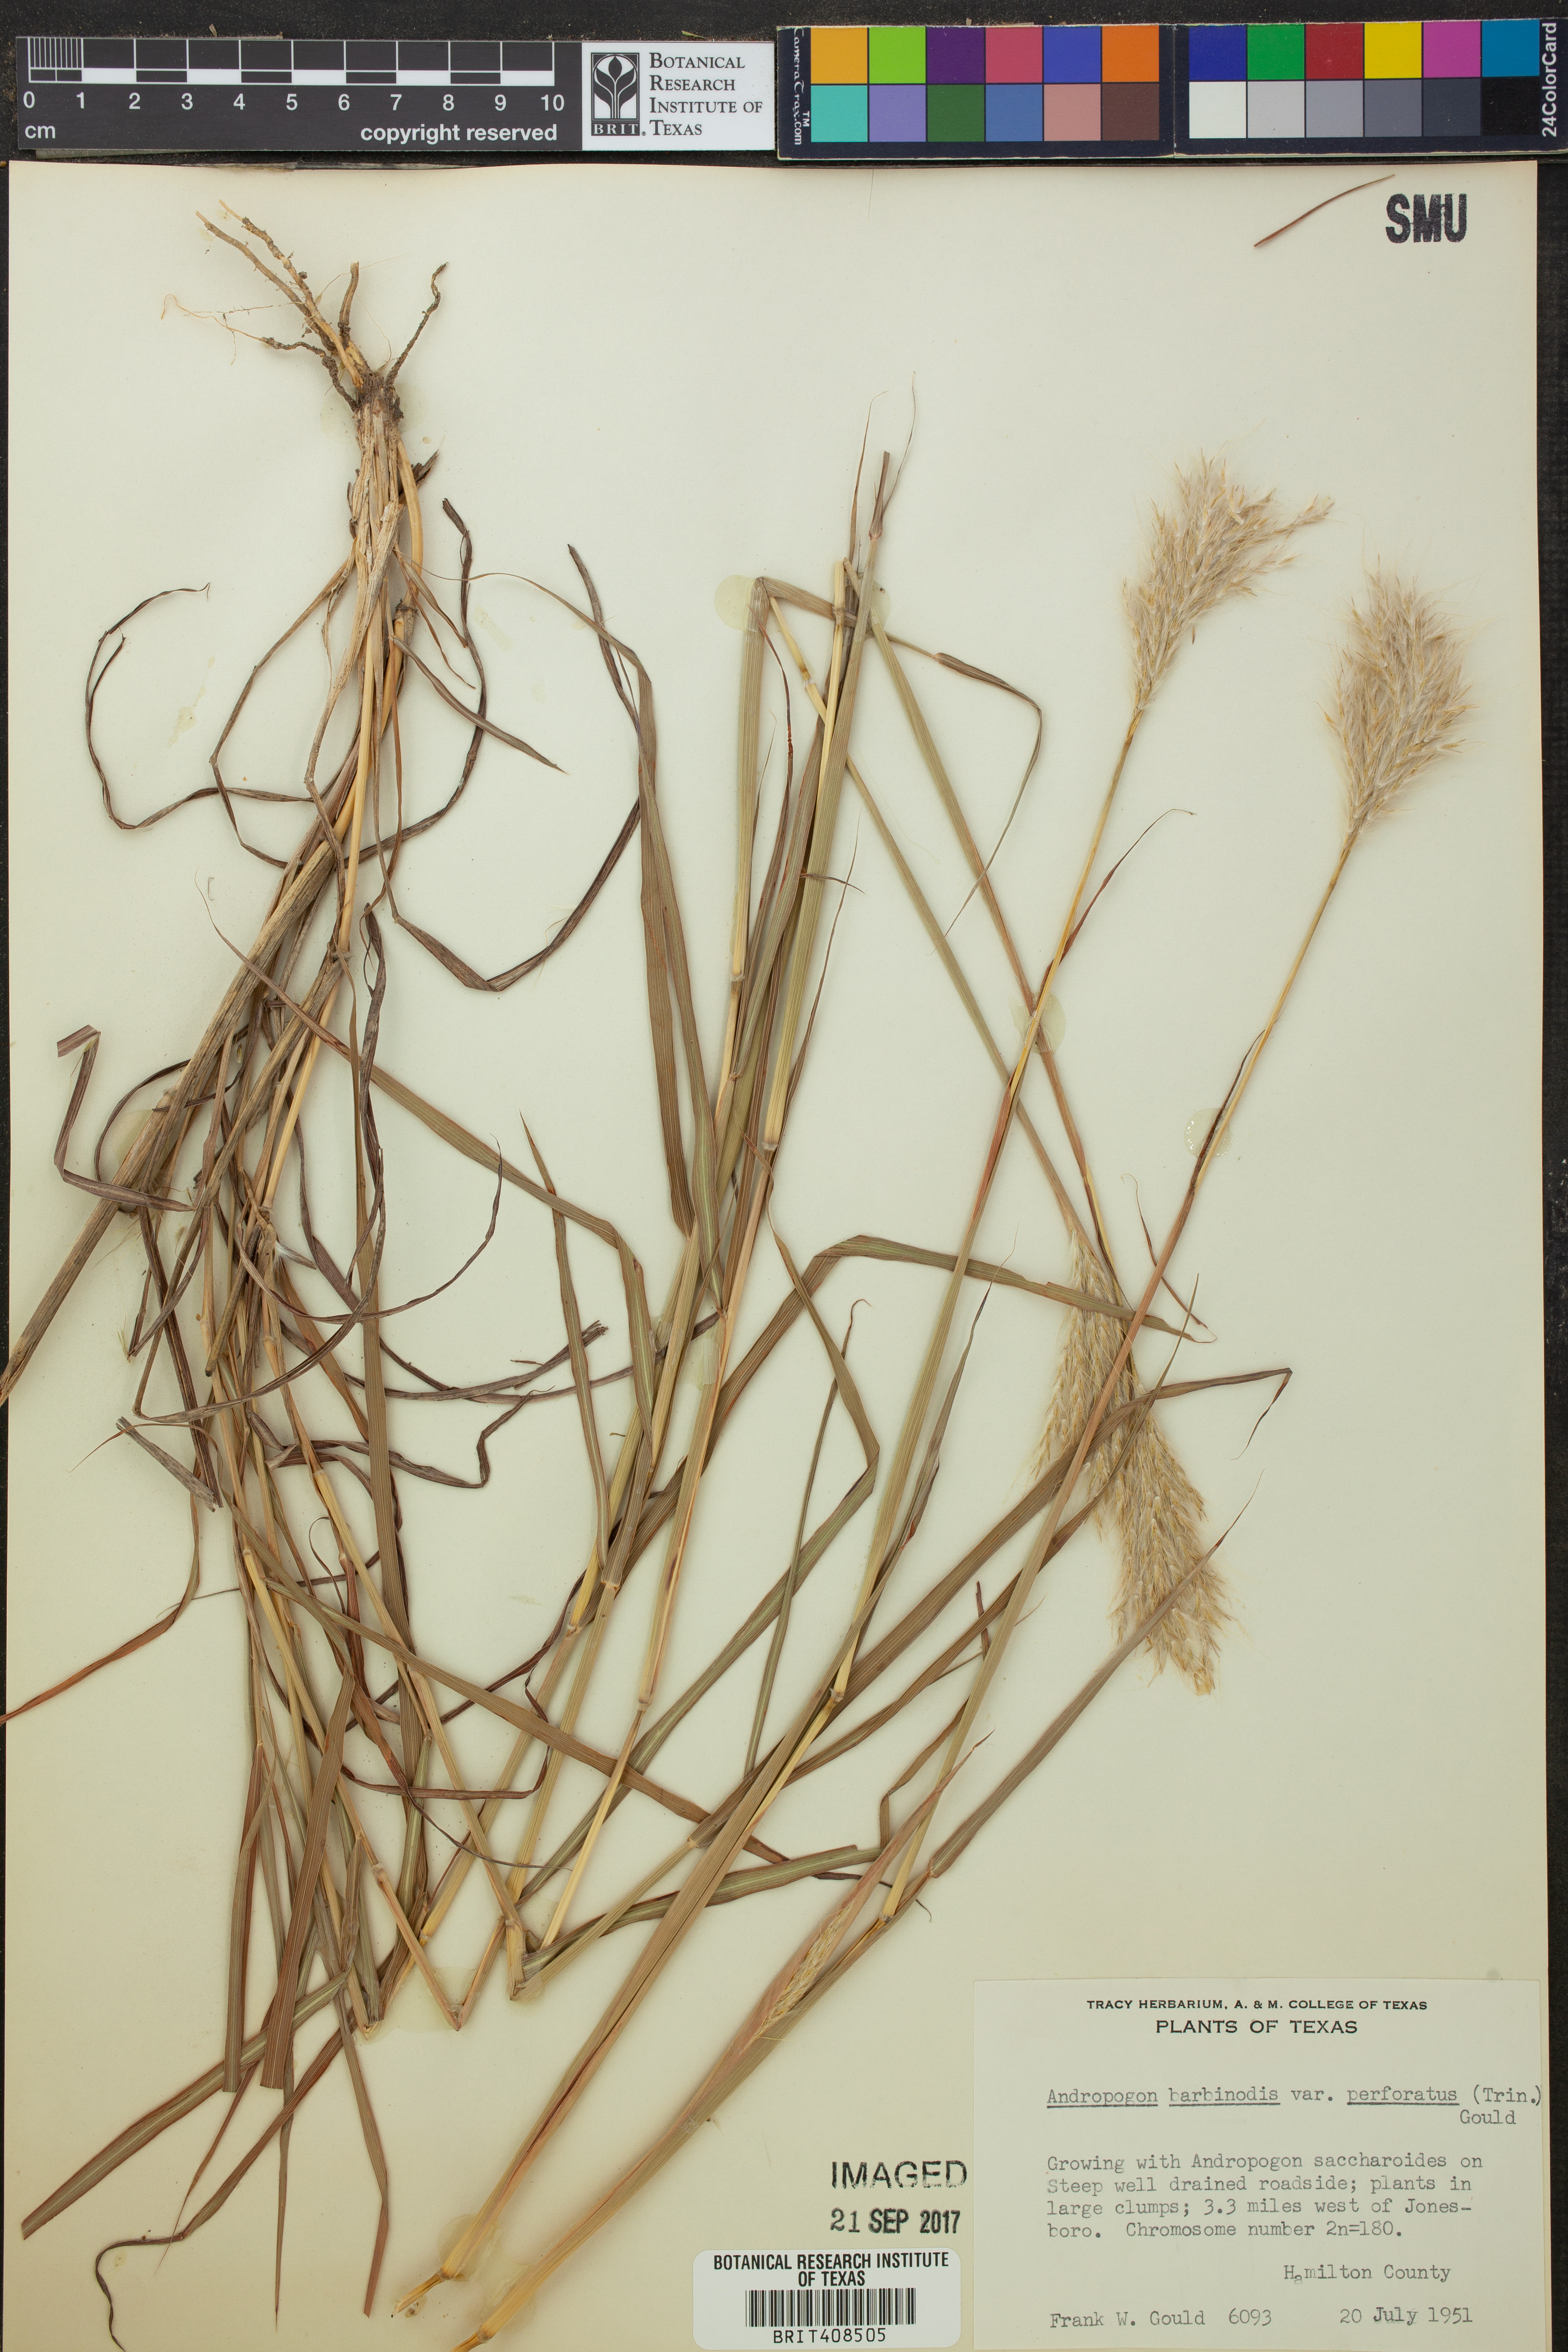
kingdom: Plantae
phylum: Tracheophyta
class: Liliopsida
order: Poales
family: Poaceae
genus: Bothriochloa
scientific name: Bothriochloa barbinodis
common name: Cane bluestem
